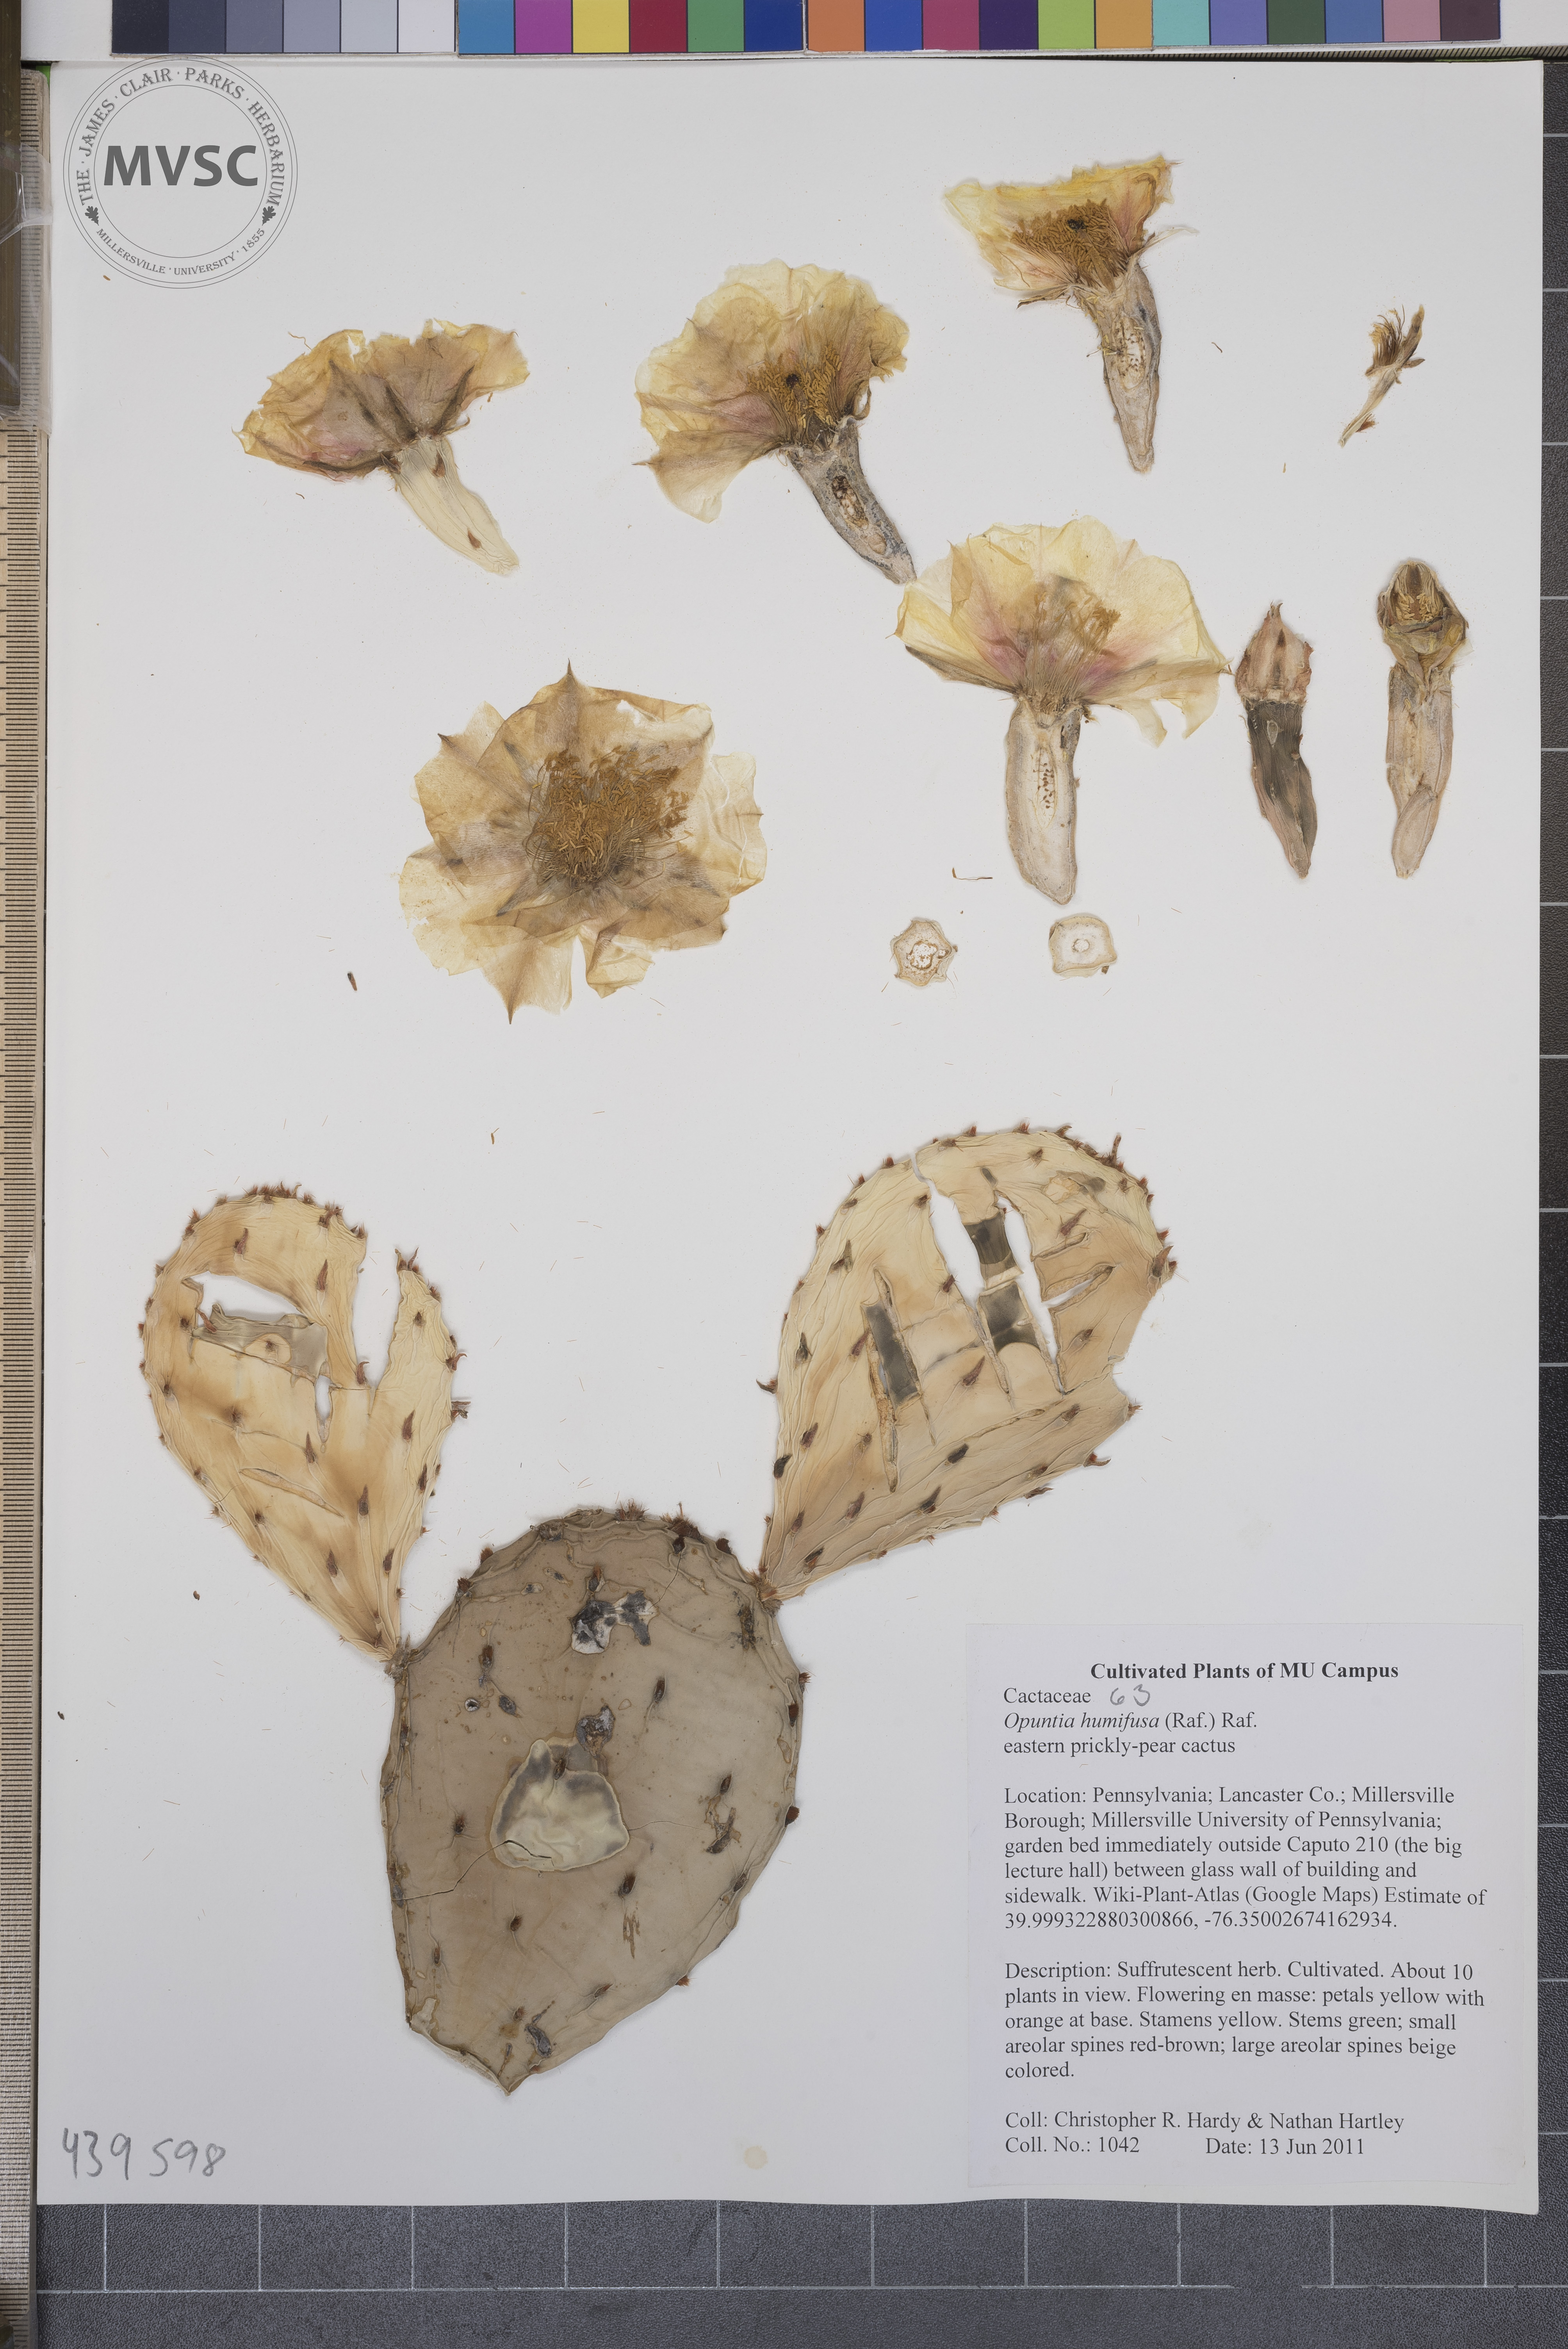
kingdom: Plantae
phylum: Tracheophyta
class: Magnoliopsida
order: Caryophyllales
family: Cactaceae
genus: Opuntia
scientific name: Opuntia humifusa
